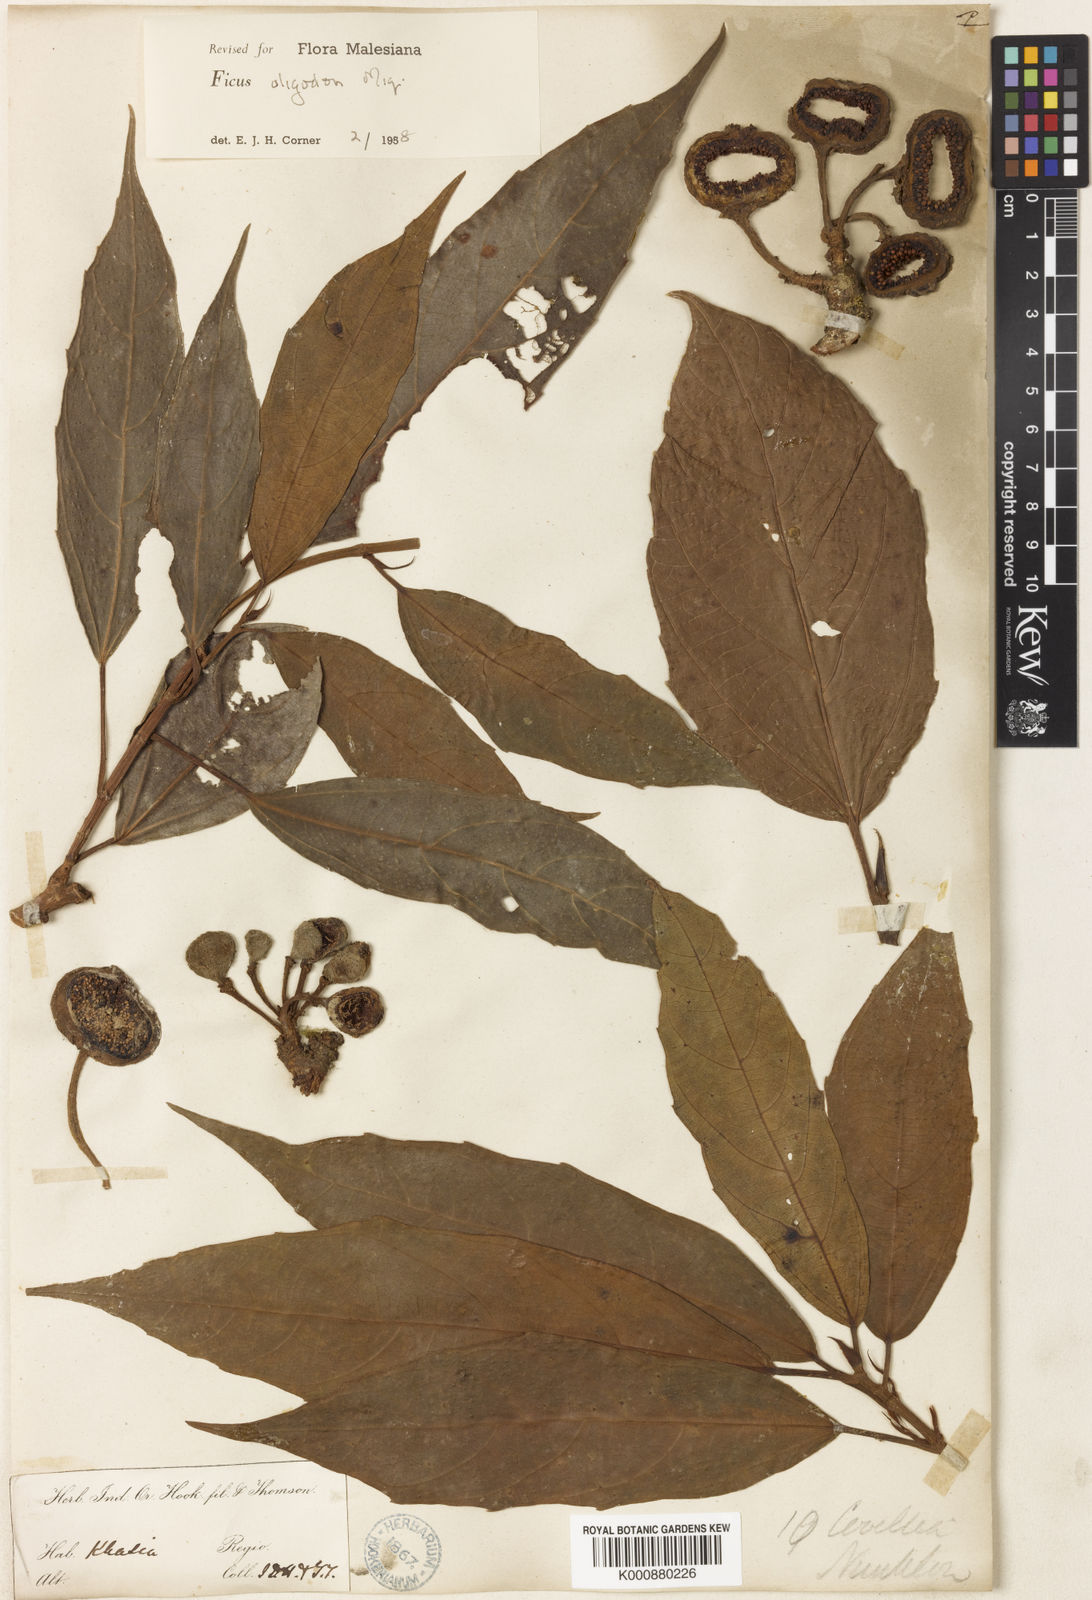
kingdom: Plantae
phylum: Tracheophyta
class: Magnoliopsida
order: Rosales
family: Moraceae
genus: Ficus
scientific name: Ficus auriculata
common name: Roxburgh fig
